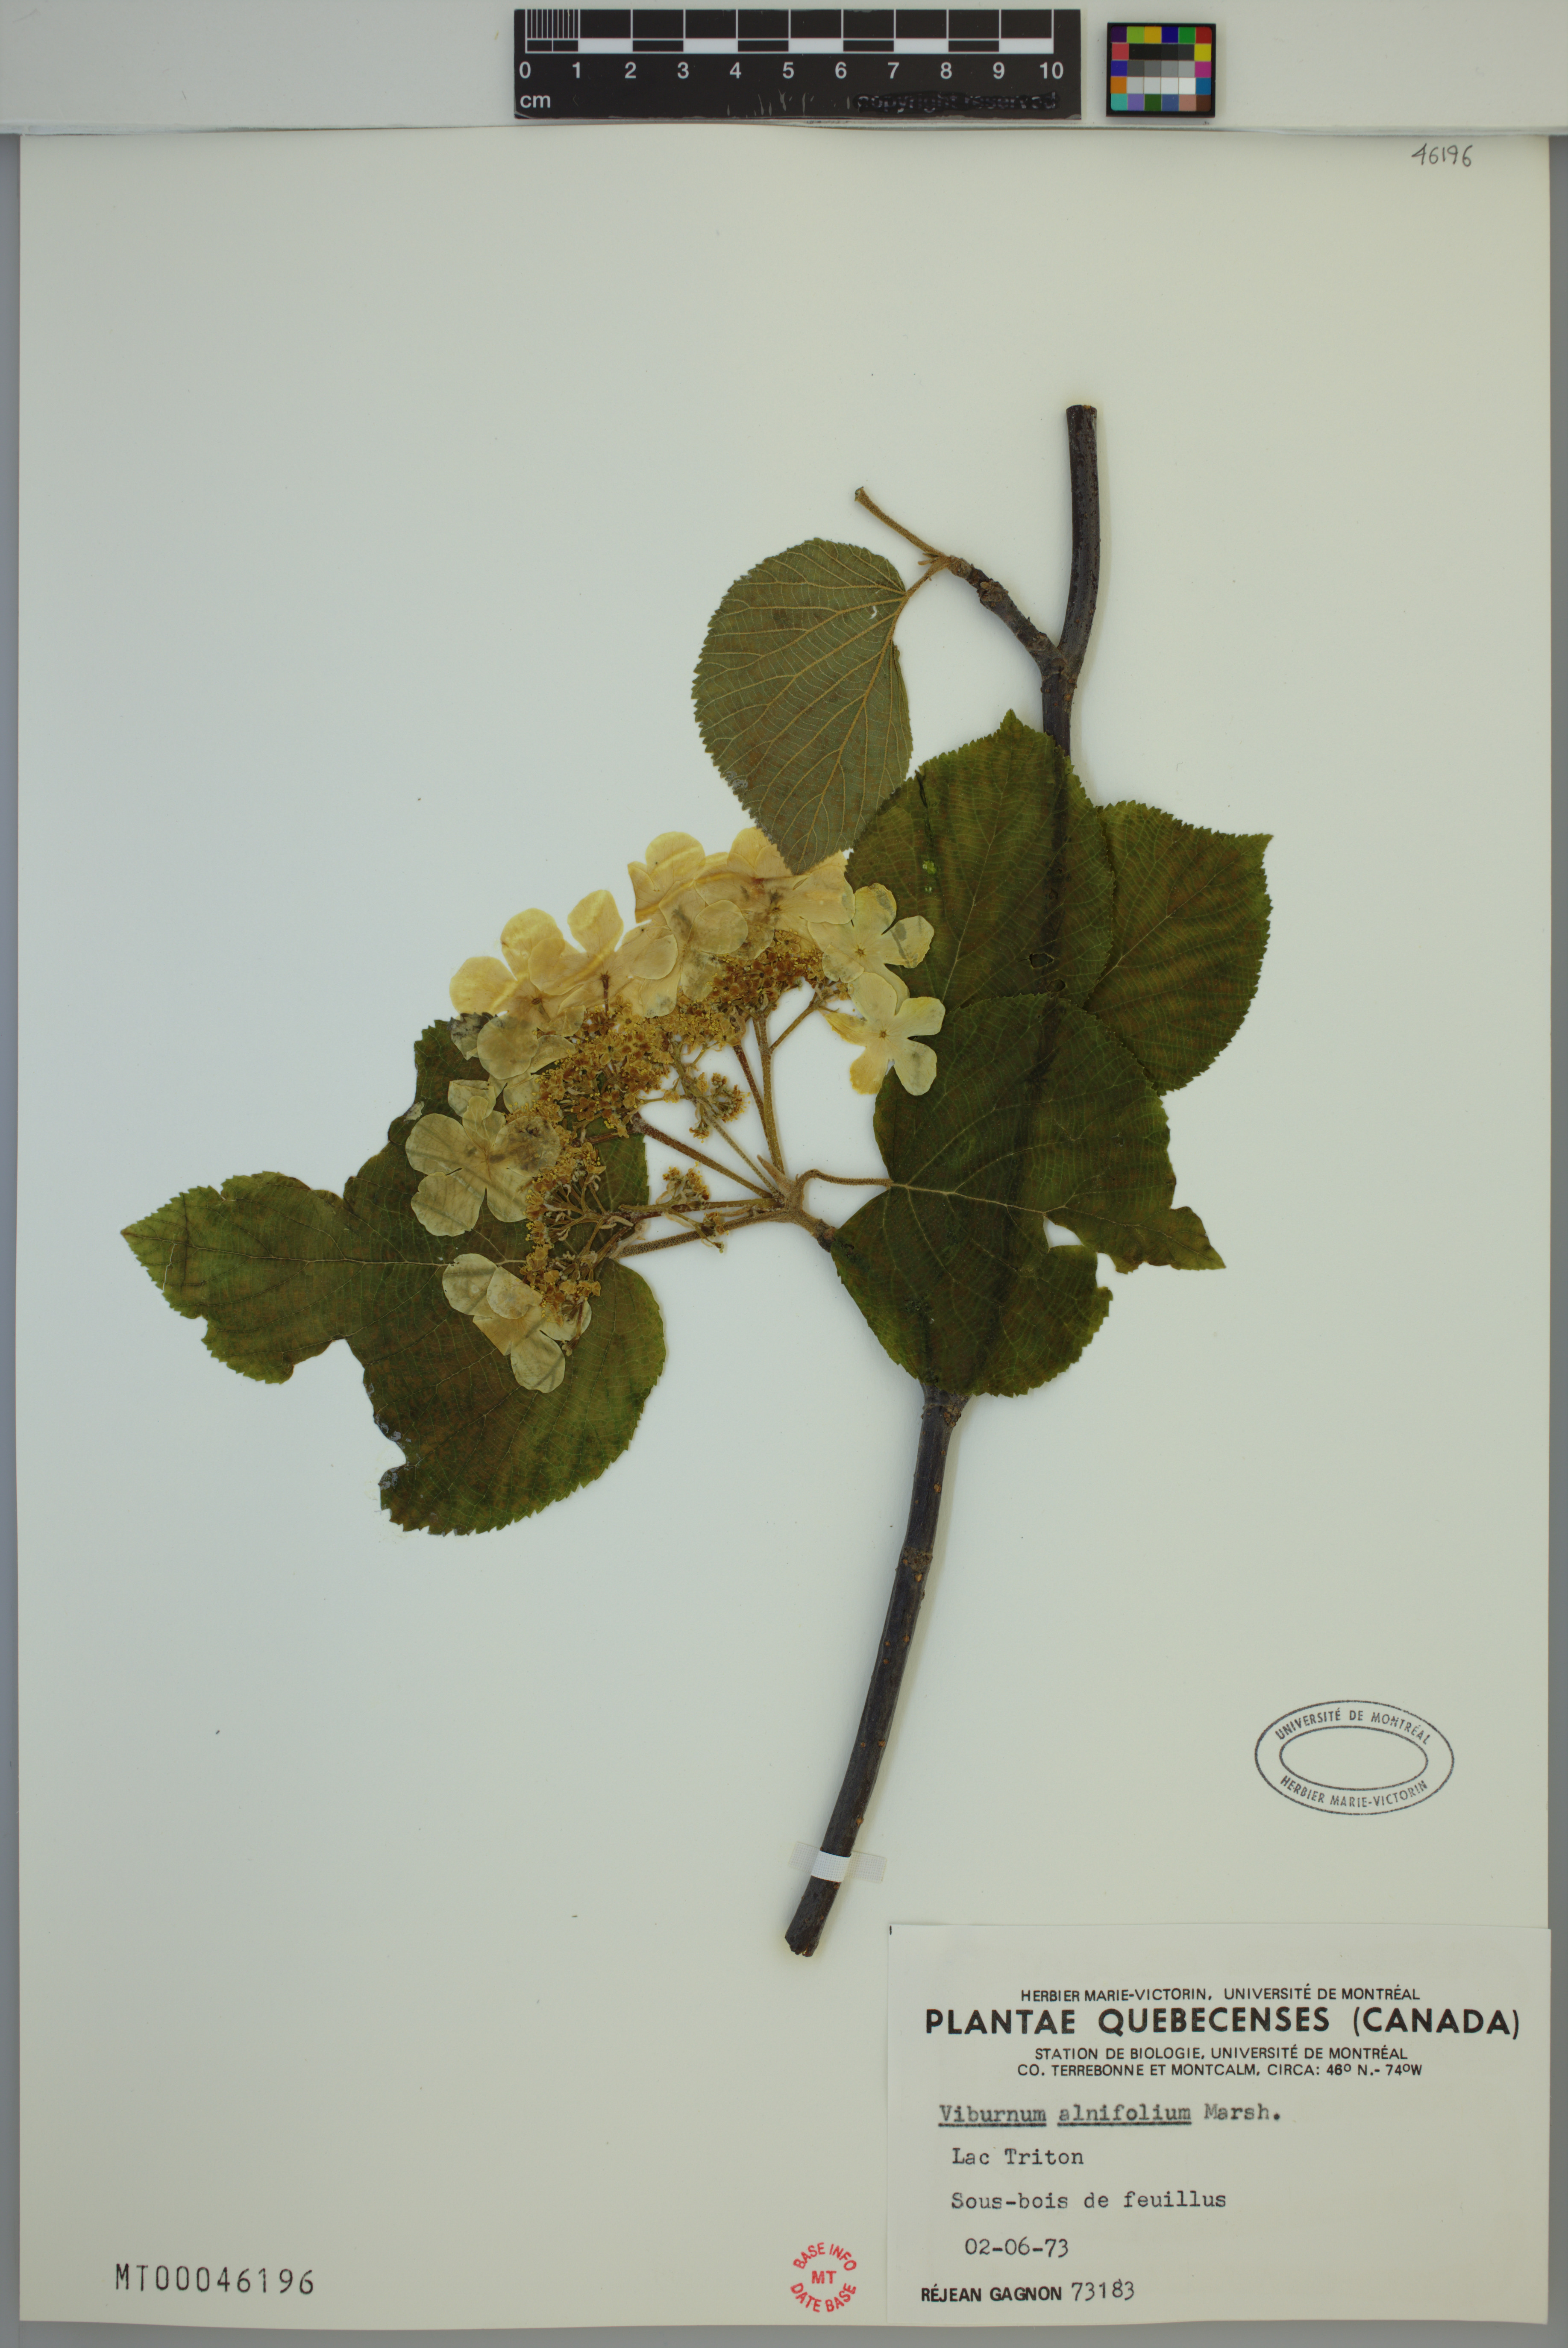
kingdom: Plantae
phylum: Tracheophyta
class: Magnoliopsida
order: Dipsacales
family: Viburnaceae
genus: Viburnum
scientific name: Viburnum lantanoides
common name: Hobblebush
